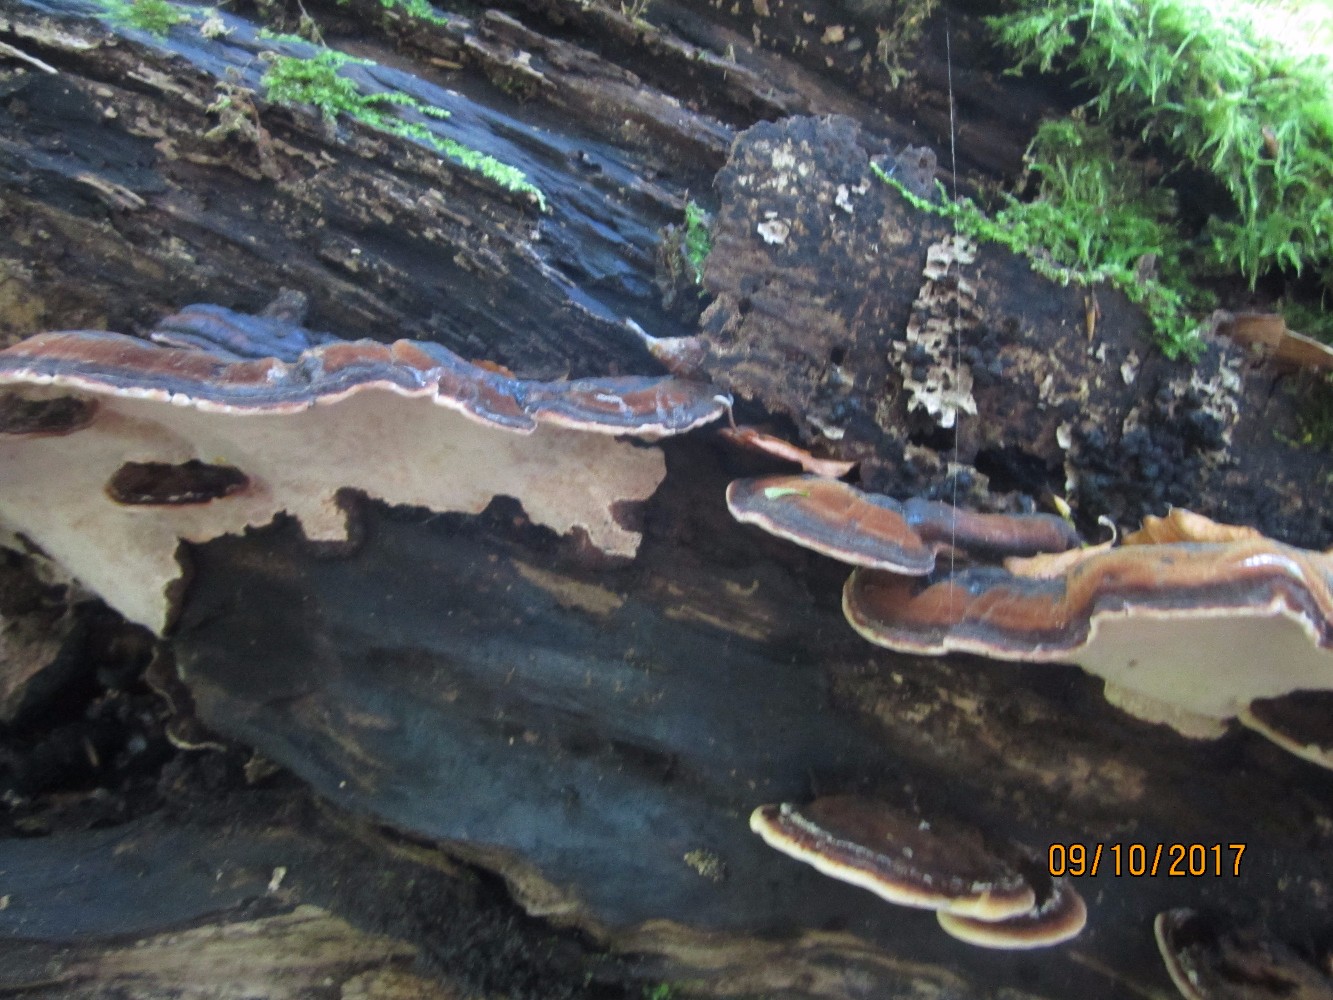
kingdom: Fungi
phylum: Basidiomycota
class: Agaricomycetes
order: Polyporales
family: Ischnodermataceae
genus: Ischnoderma
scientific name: Ischnoderma resinosum
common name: løv-tjæreporesvamp
